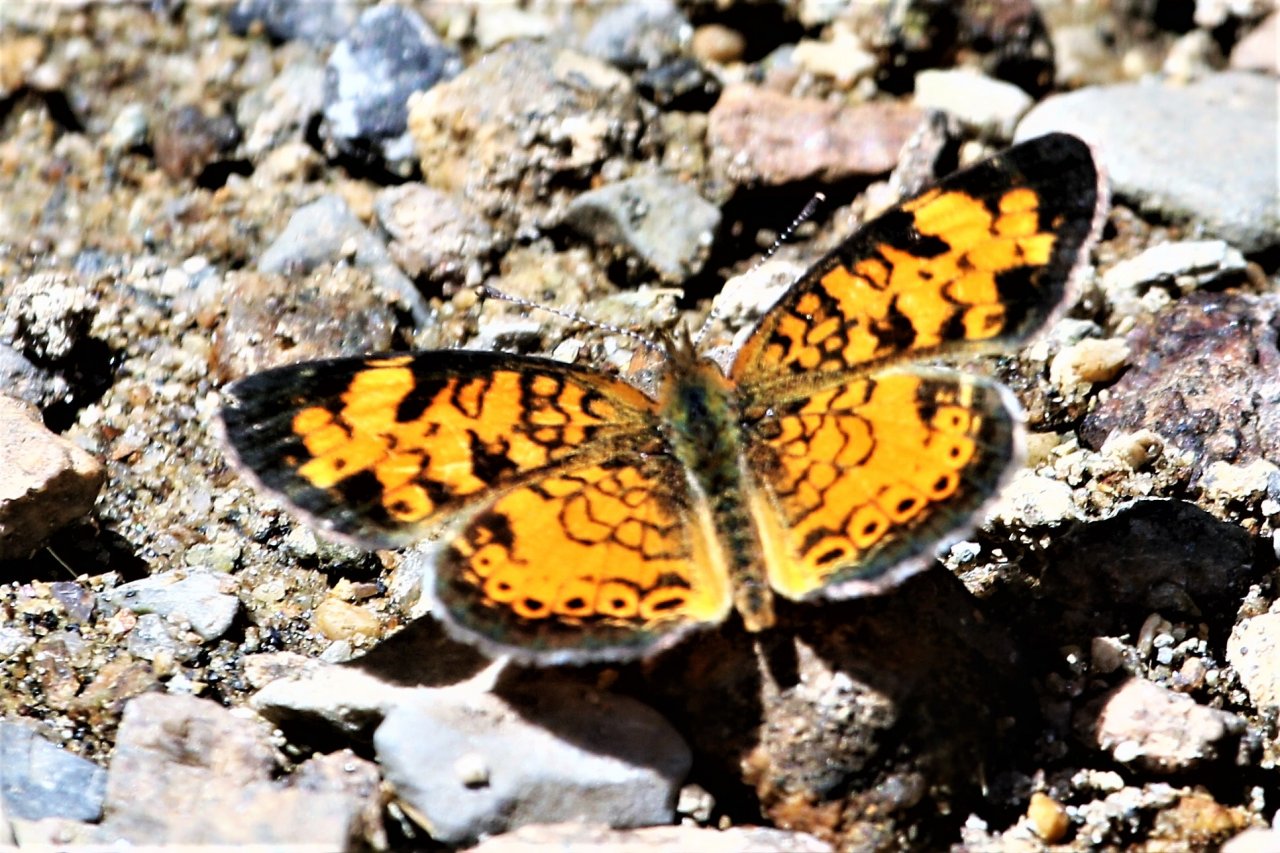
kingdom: Animalia
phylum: Arthropoda
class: Insecta
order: Lepidoptera
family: Nymphalidae
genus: Phyciodes
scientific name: Phyciodes tharos
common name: Pearl Crescent
